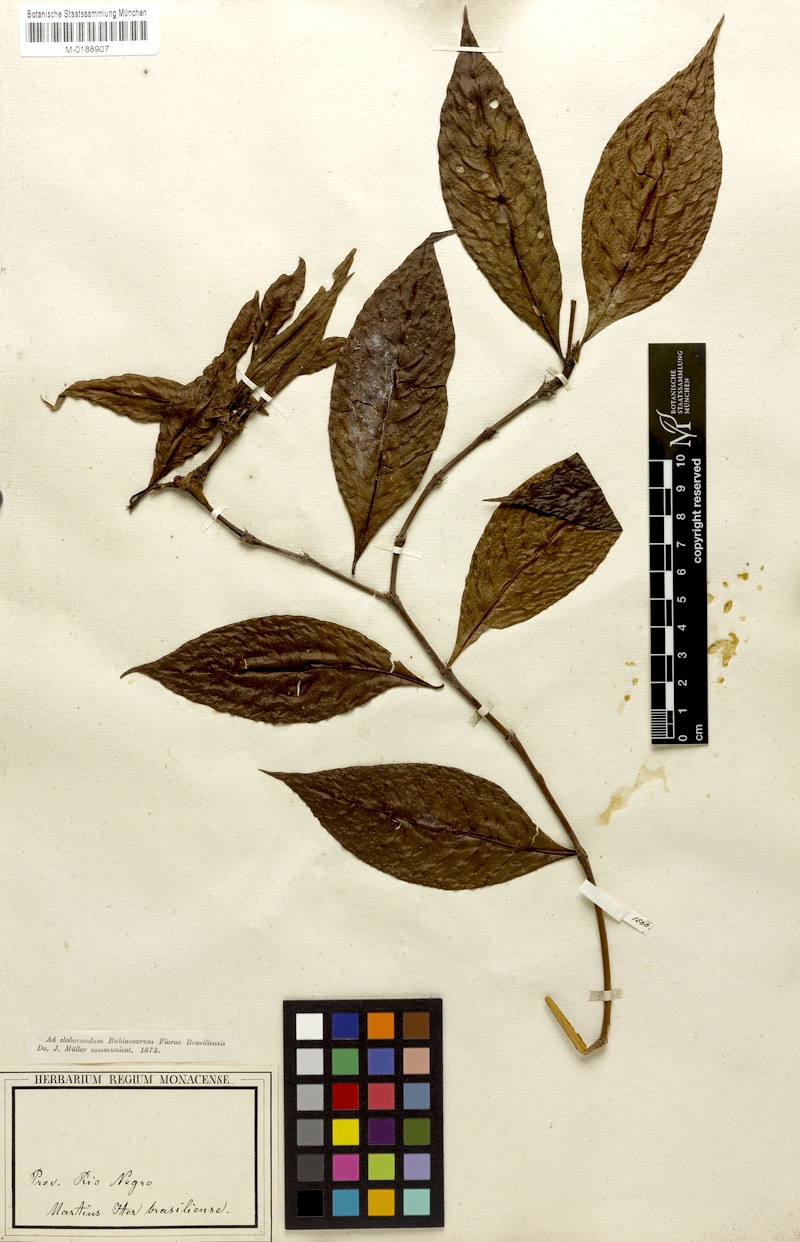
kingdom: Plantae
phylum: Tracheophyta
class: Magnoliopsida
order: Gentianales
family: Rubiaceae
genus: Palicourea
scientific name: Palicourea gracilenta
